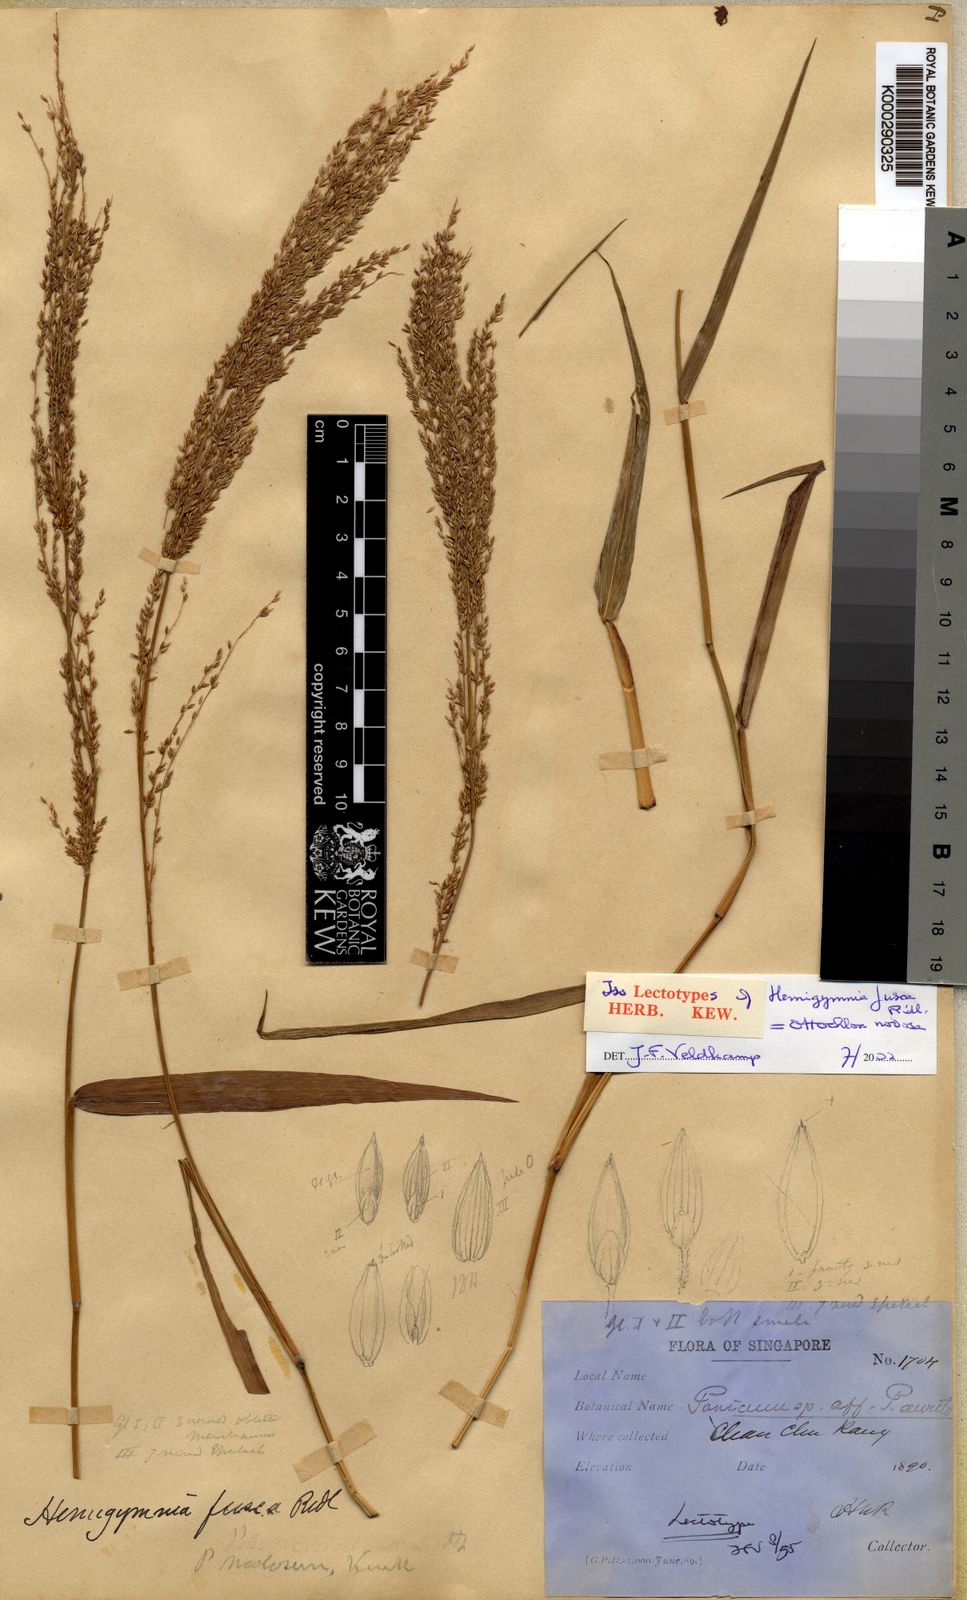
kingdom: Plantae
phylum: Tracheophyta
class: Liliopsida
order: Poales
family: Poaceae
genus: Ottochloa
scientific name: Ottochloa nodosa
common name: Slender-panic grass
